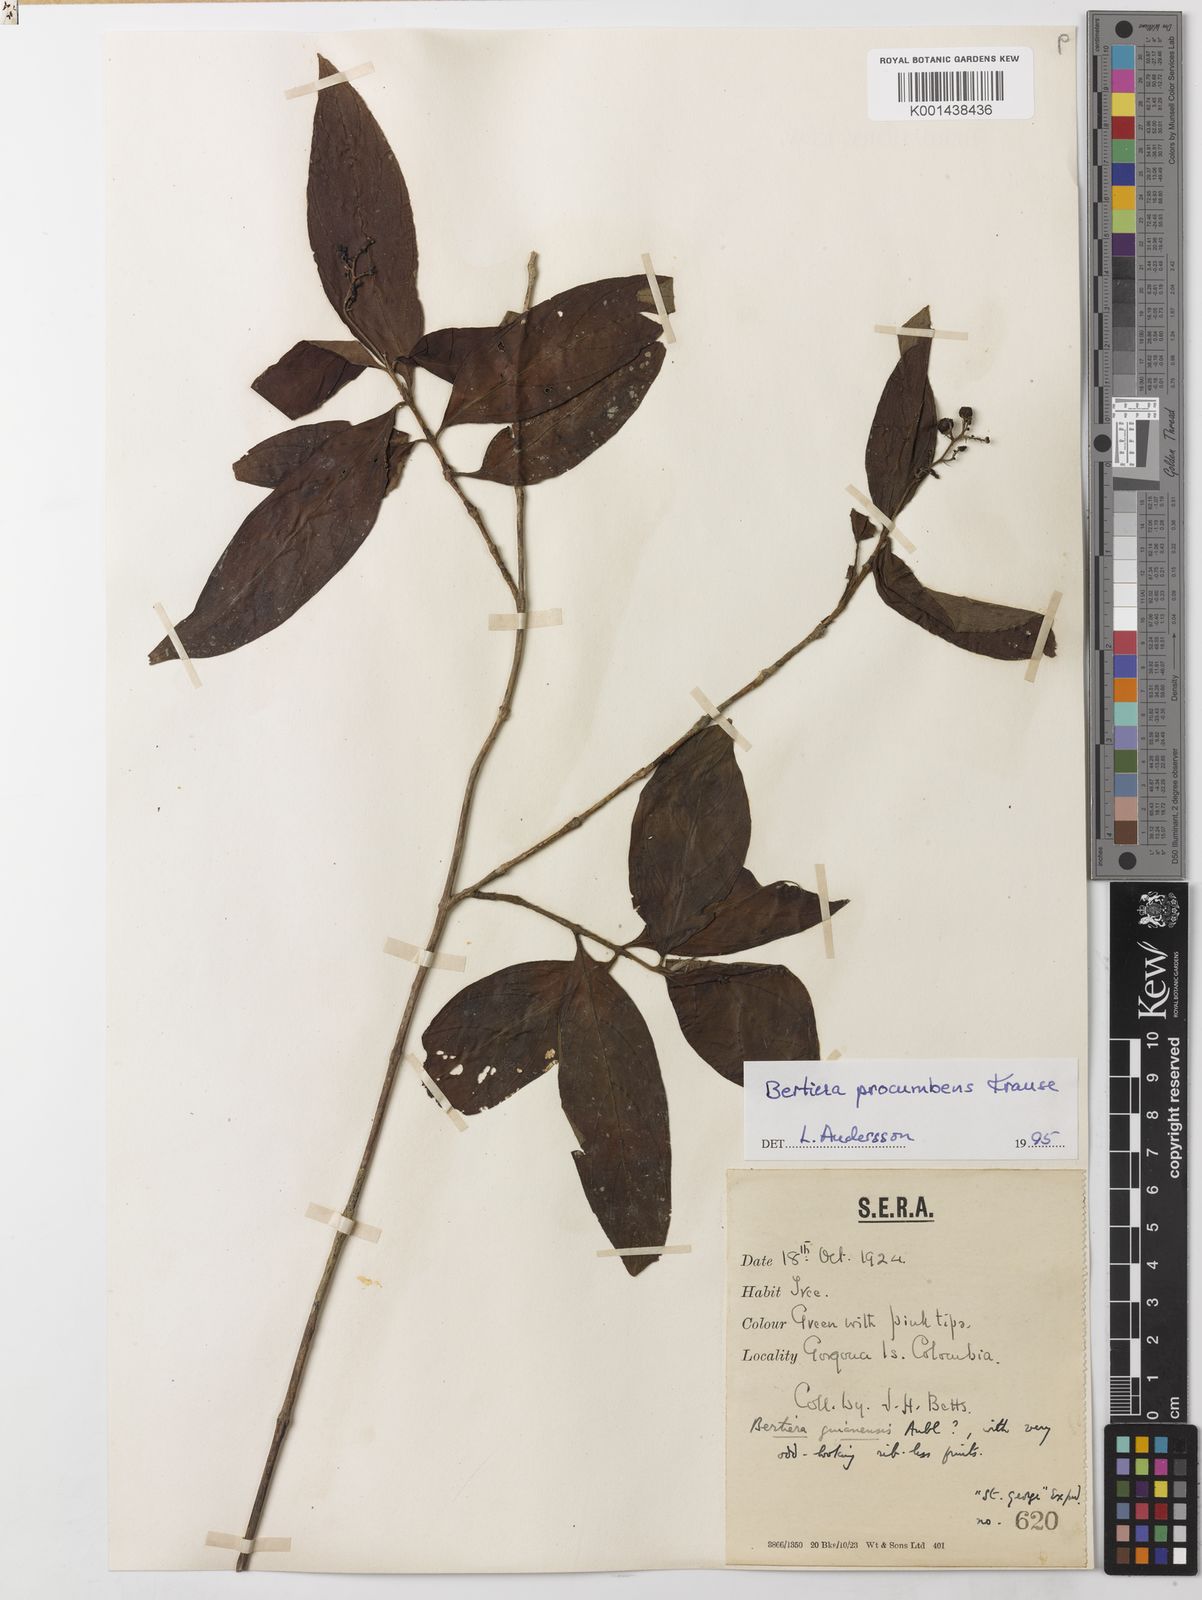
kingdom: Plantae
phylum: Tracheophyta
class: Magnoliopsida
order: Gentianales
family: Rubiaceae
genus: Bertiera
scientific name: Bertiera procumbens
